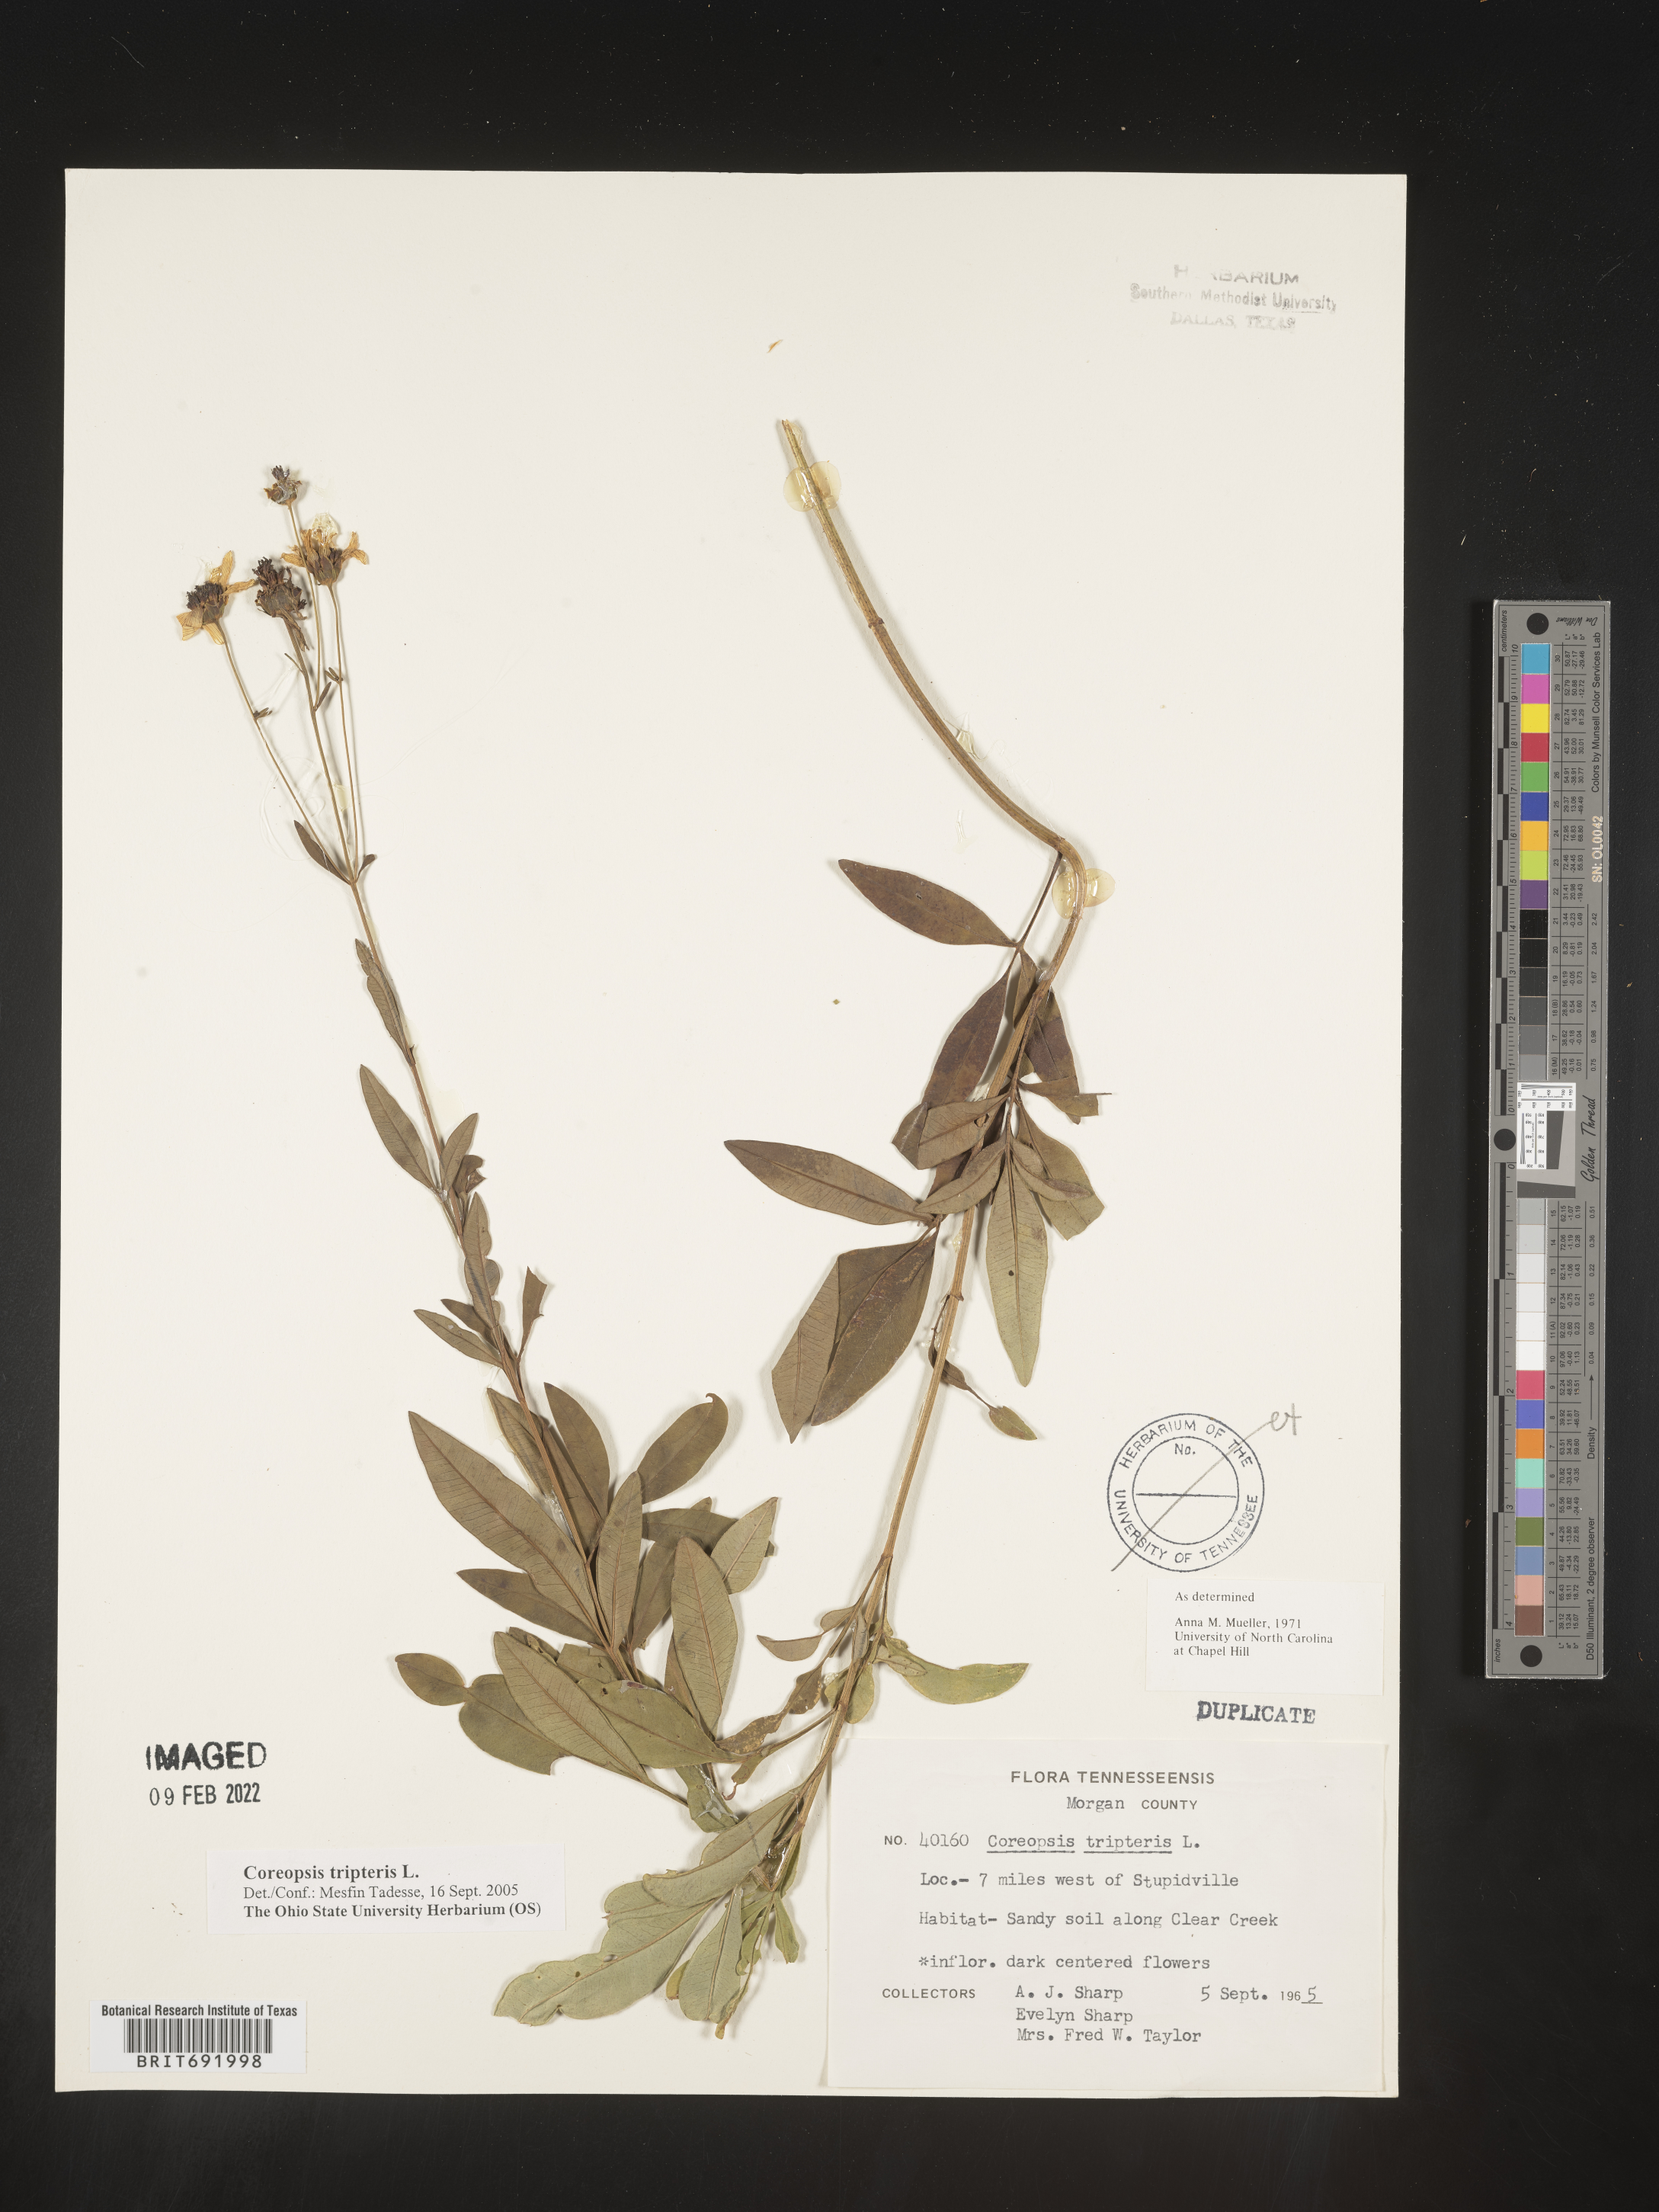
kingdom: Plantae
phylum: Tracheophyta
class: Magnoliopsida
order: Asterales
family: Asteraceae
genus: Coreopsis
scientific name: Coreopsis tripteris
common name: Tall coreopsis
